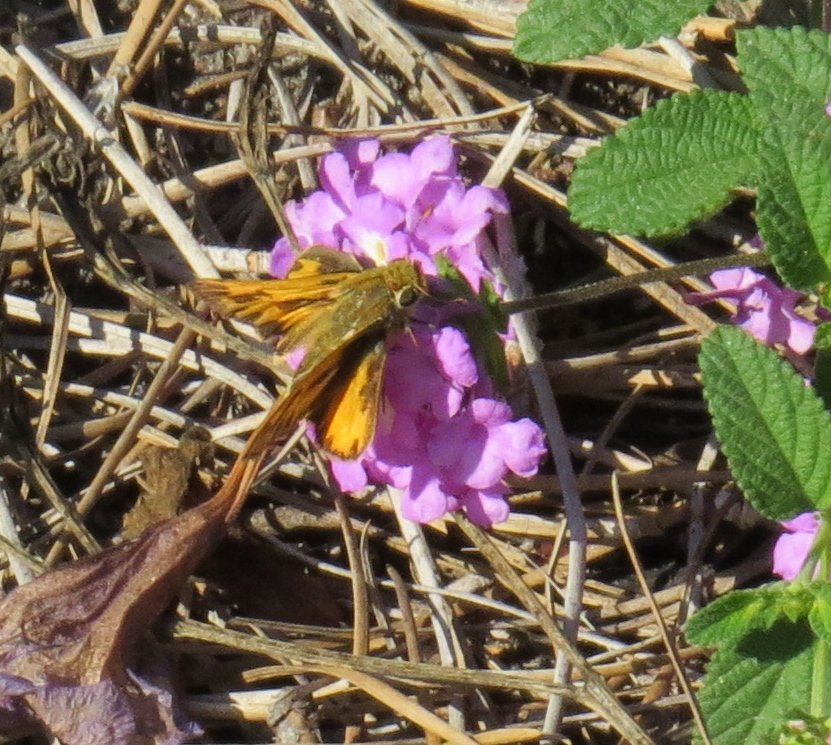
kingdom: Animalia
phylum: Arthropoda
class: Insecta
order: Lepidoptera
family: Hesperiidae
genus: Hylephila
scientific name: Hylephila phyleus
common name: Fiery Skipper
